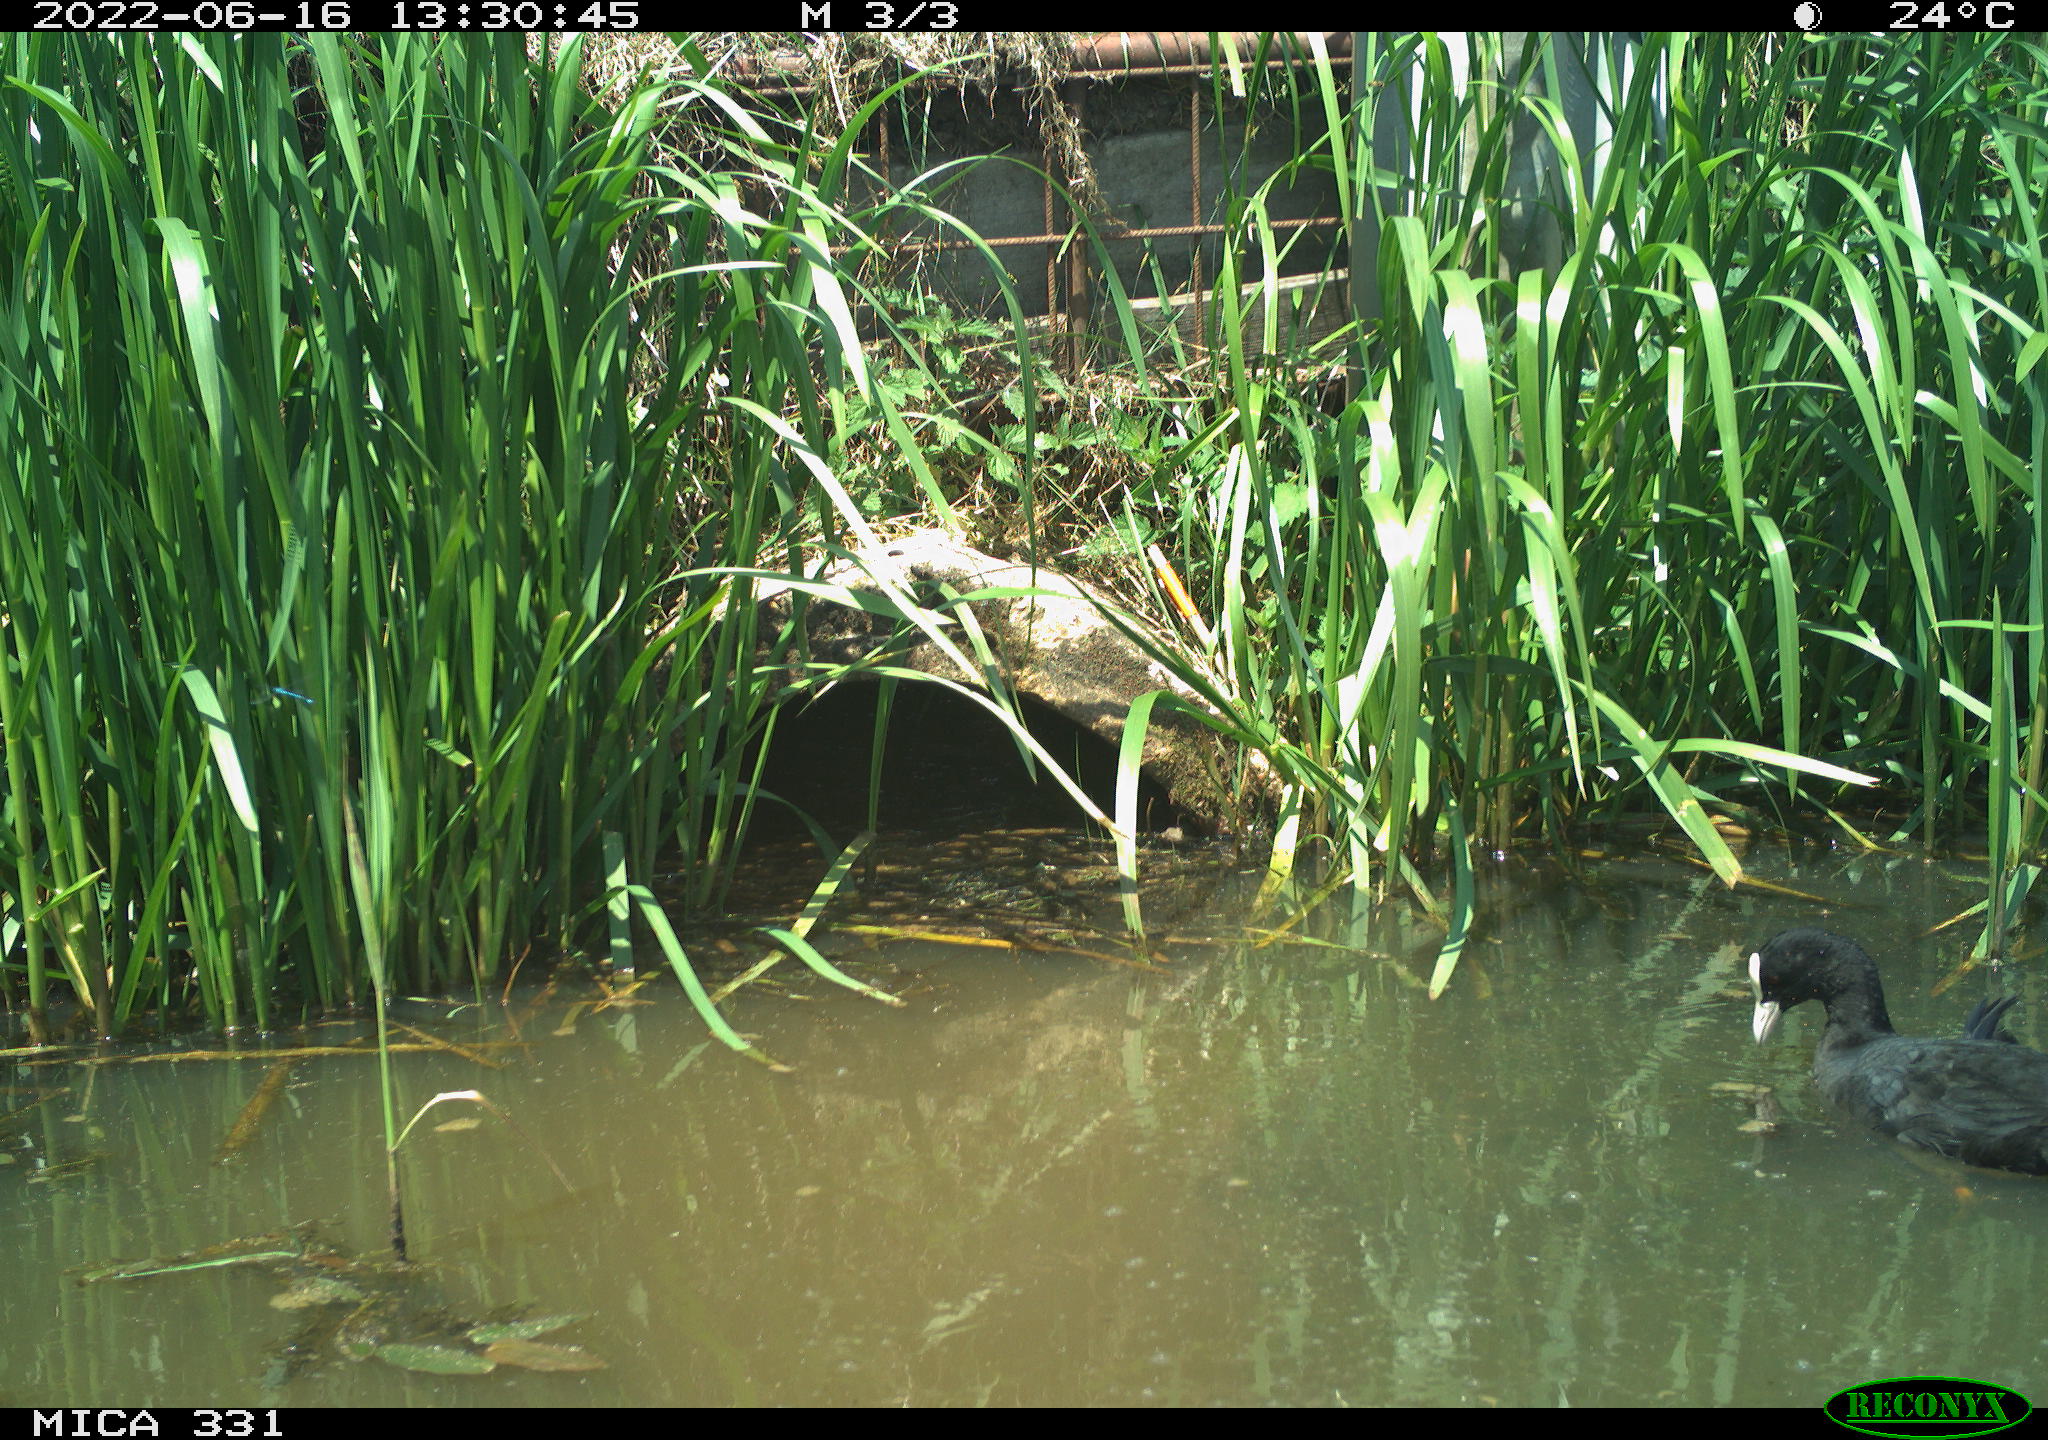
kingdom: Animalia
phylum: Chordata
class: Aves
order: Gruiformes
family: Rallidae
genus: Fulica
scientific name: Fulica atra
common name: Eurasian coot
